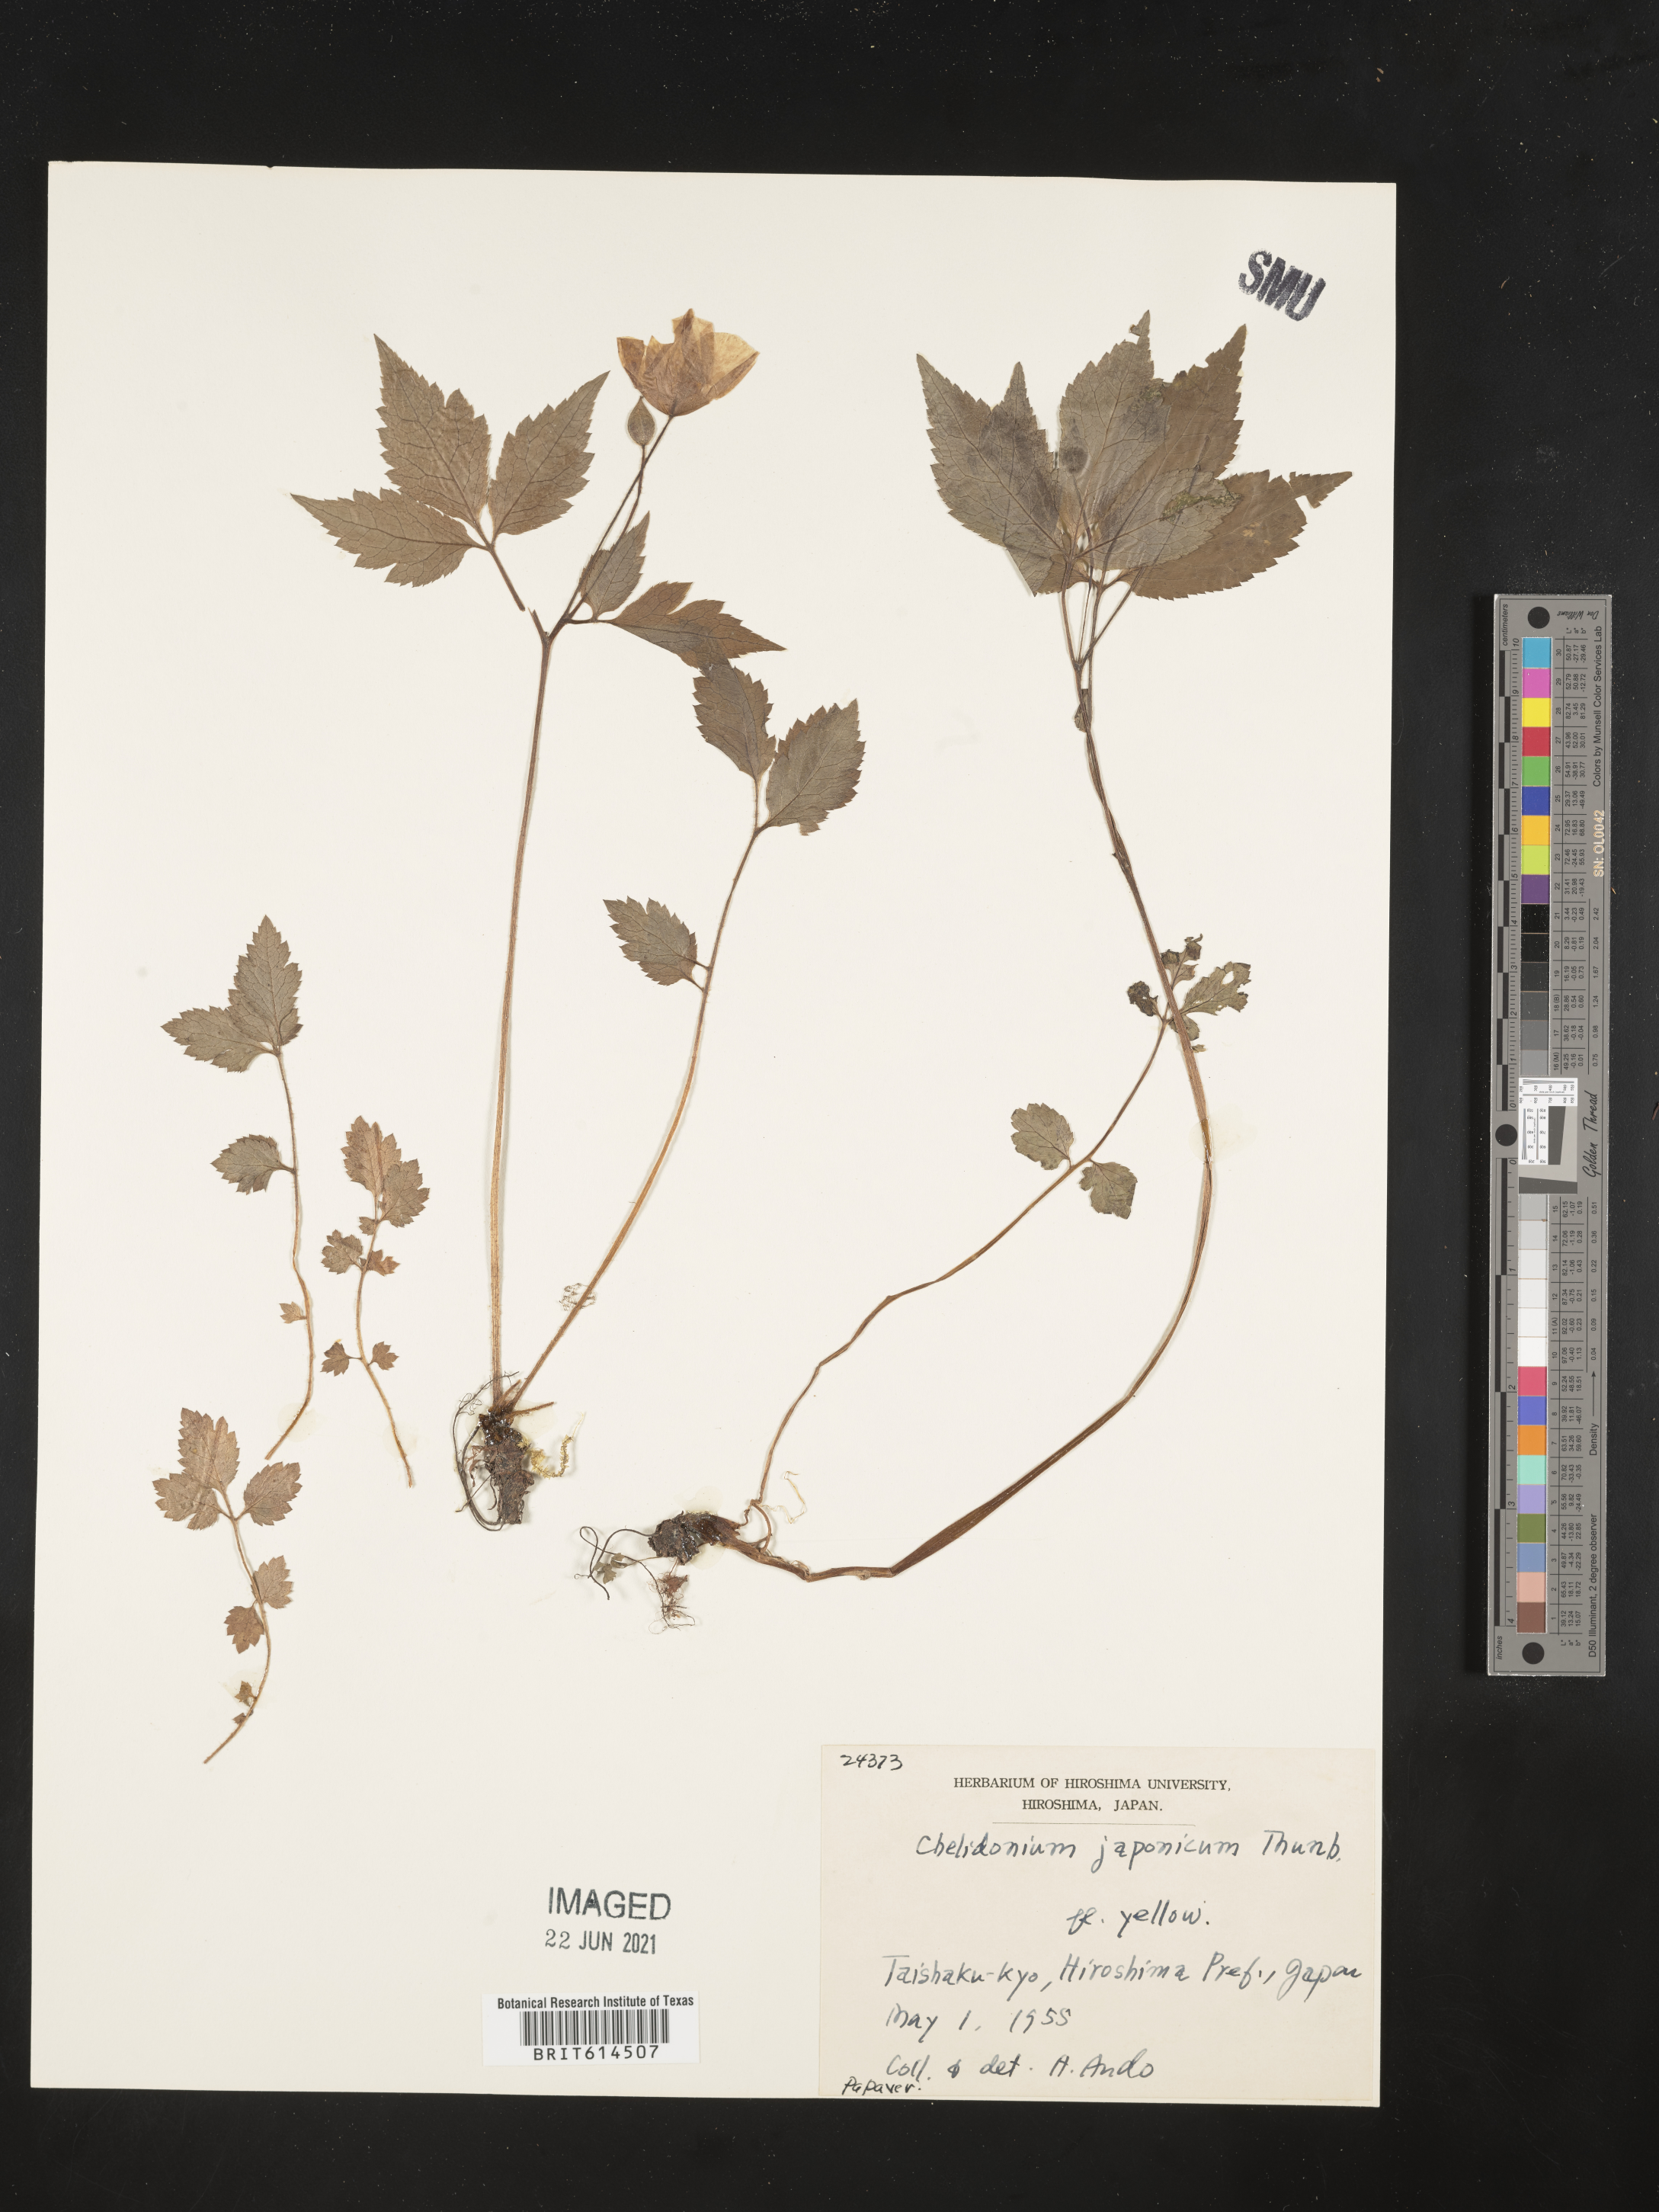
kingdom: Plantae
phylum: Tracheophyta
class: Magnoliopsida
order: Ranunculales
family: Papaveraceae
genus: Hylomecon
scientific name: Hylomecon japonicum
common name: Forest-poppy
